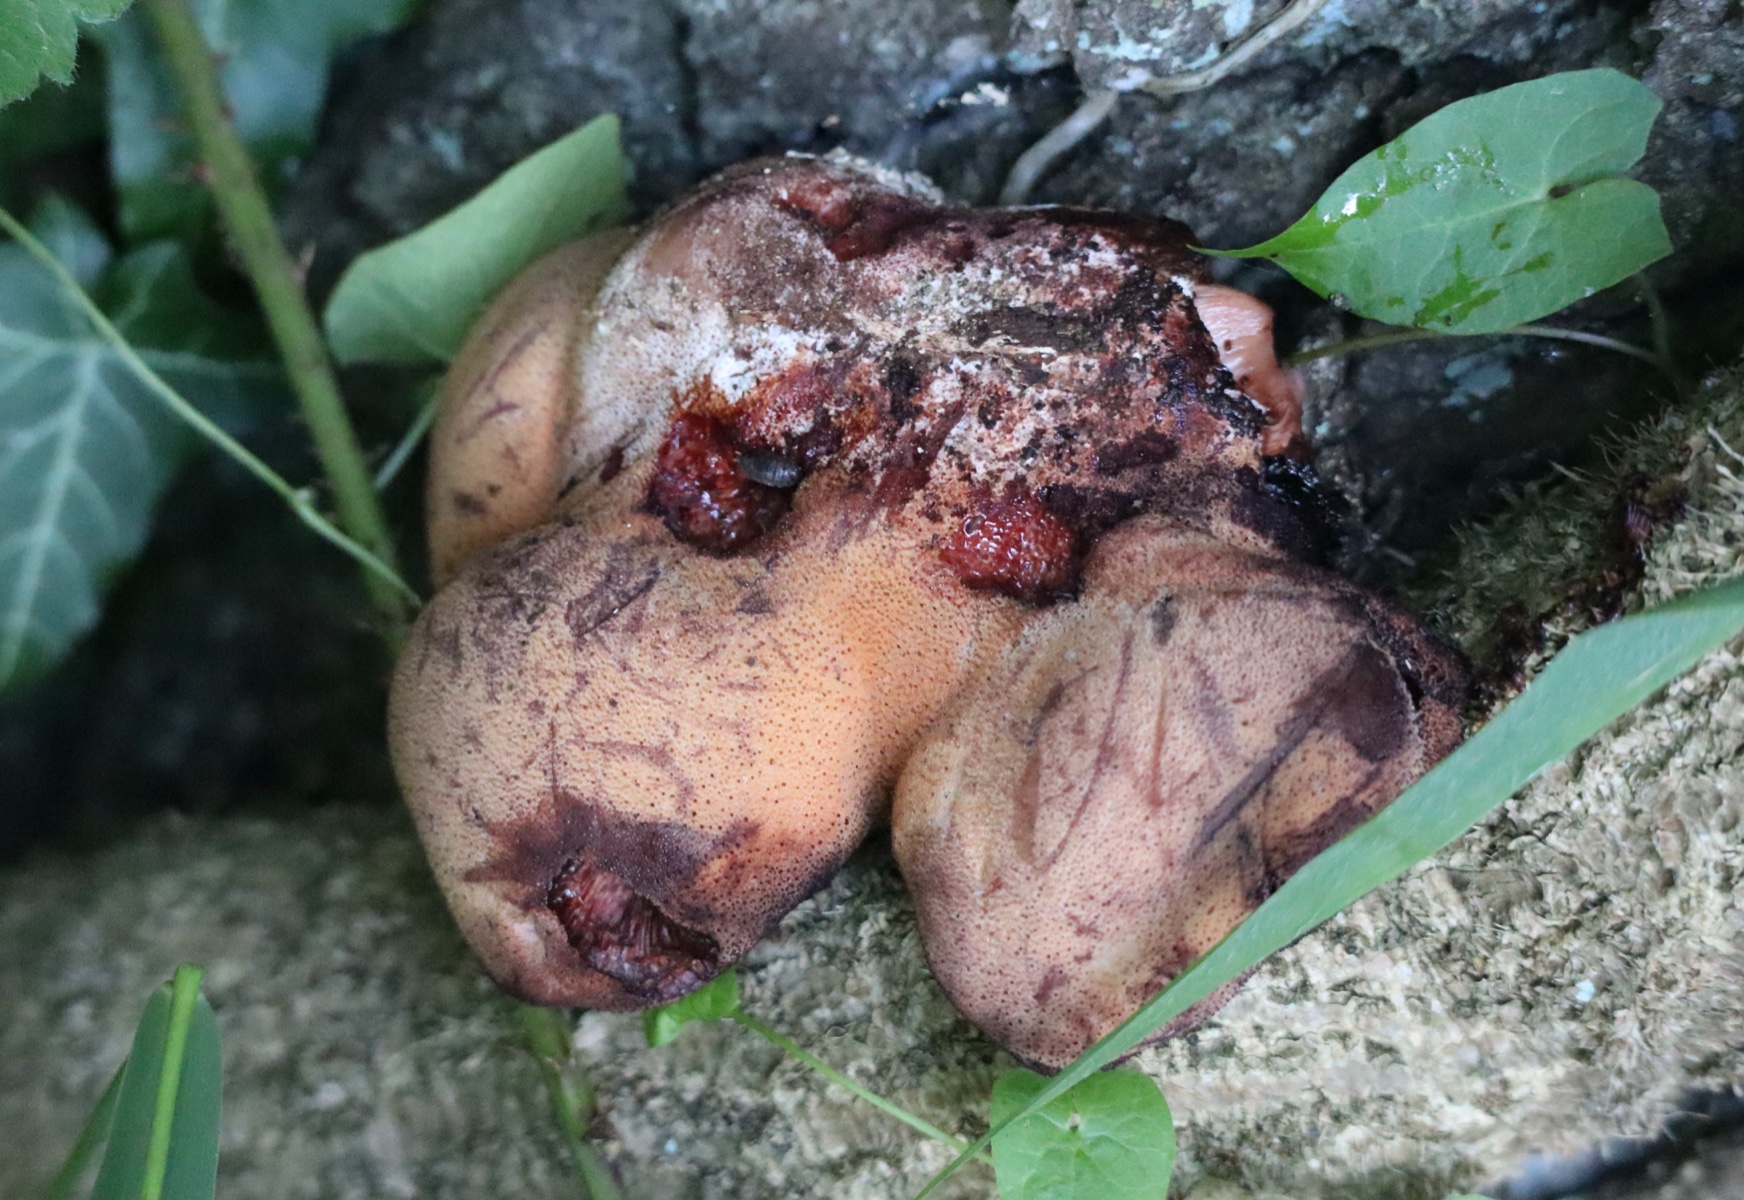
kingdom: Fungi
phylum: Basidiomycota
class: Agaricomycetes
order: Agaricales
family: Fistulinaceae
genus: Fistulina
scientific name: Fistulina hepatica
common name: oksetunge
